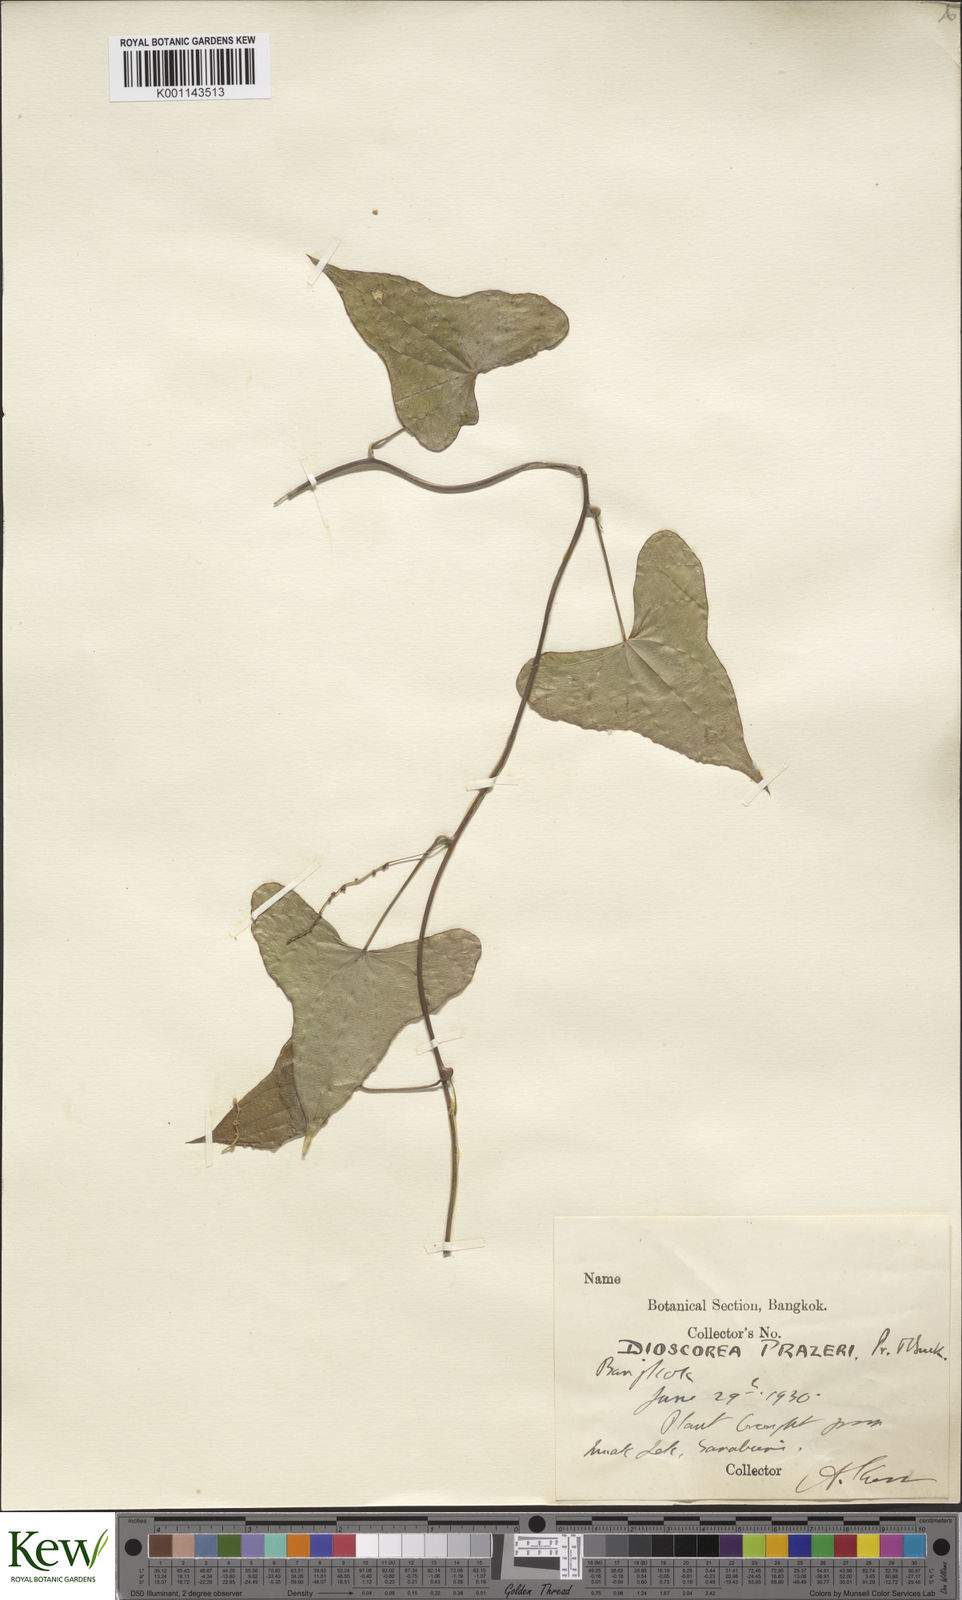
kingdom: Plantae
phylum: Tracheophyta
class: Liliopsida
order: Dioscoreales
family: Dioscoreaceae
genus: Dioscorea
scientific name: Dioscorea prazeri
